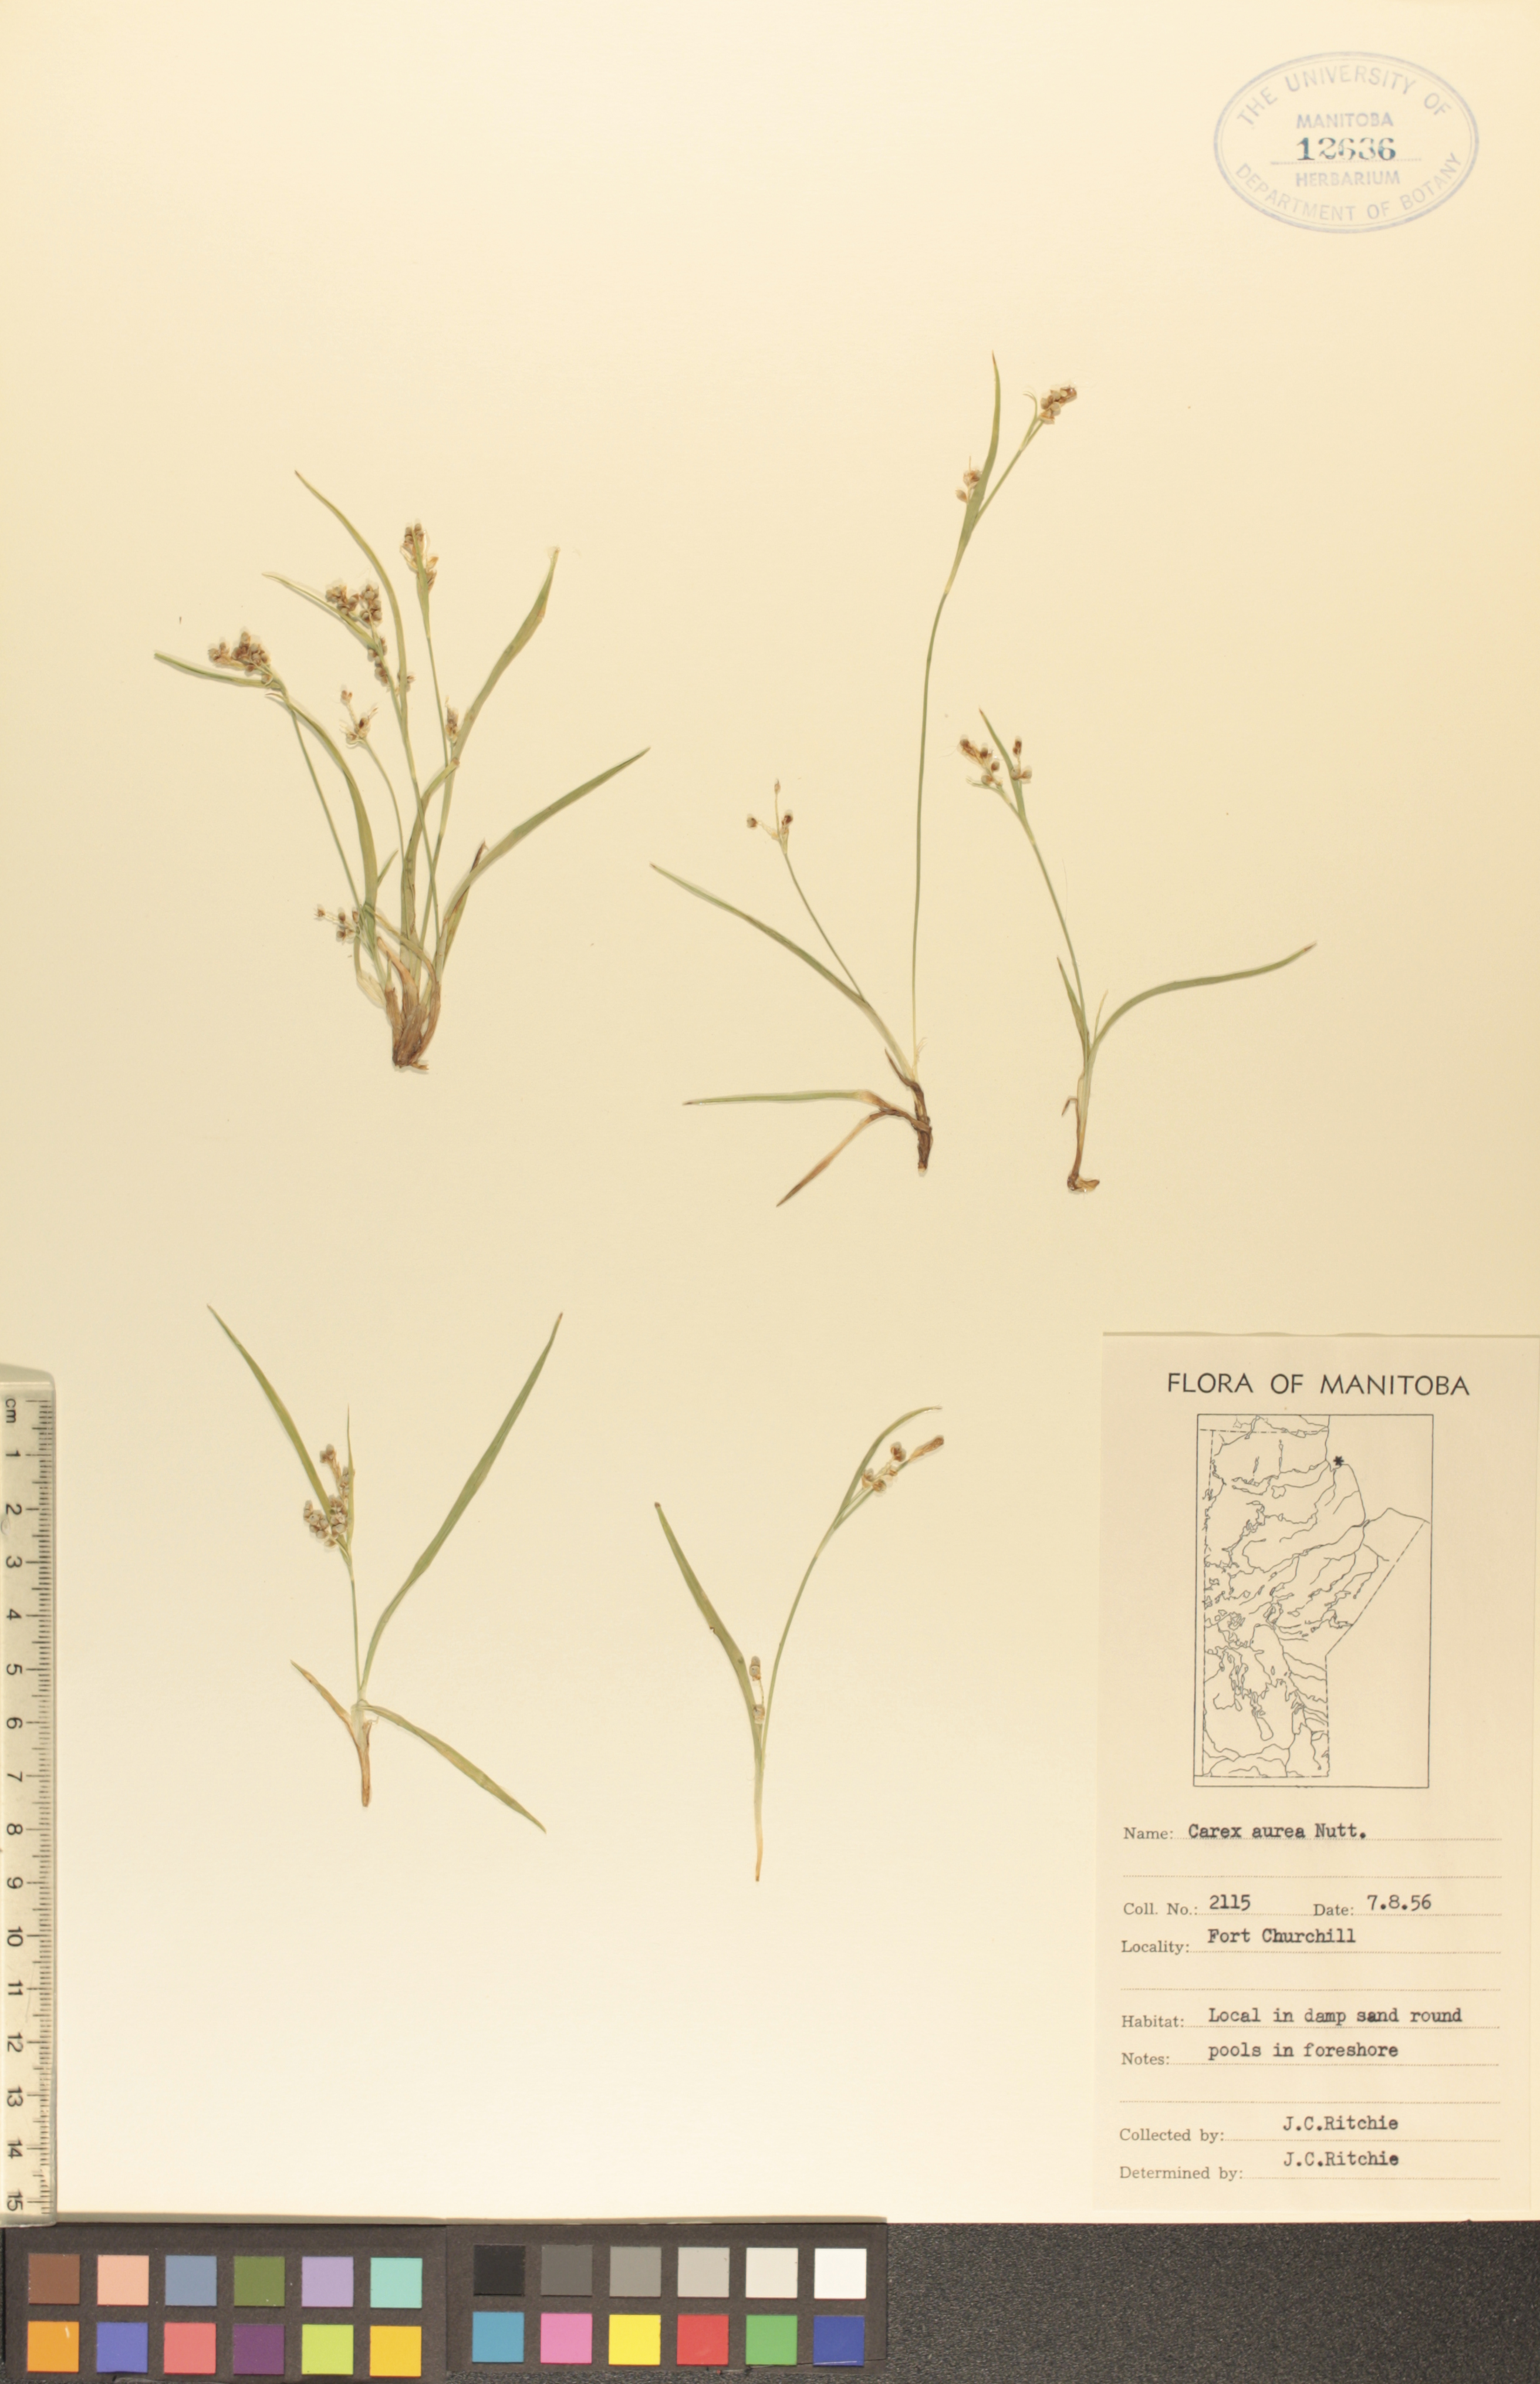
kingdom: Plantae
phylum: Tracheophyta
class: Liliopsida
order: Poales
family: Cyperaceae
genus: Carex
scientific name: Carex aurea
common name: Golden sedge
